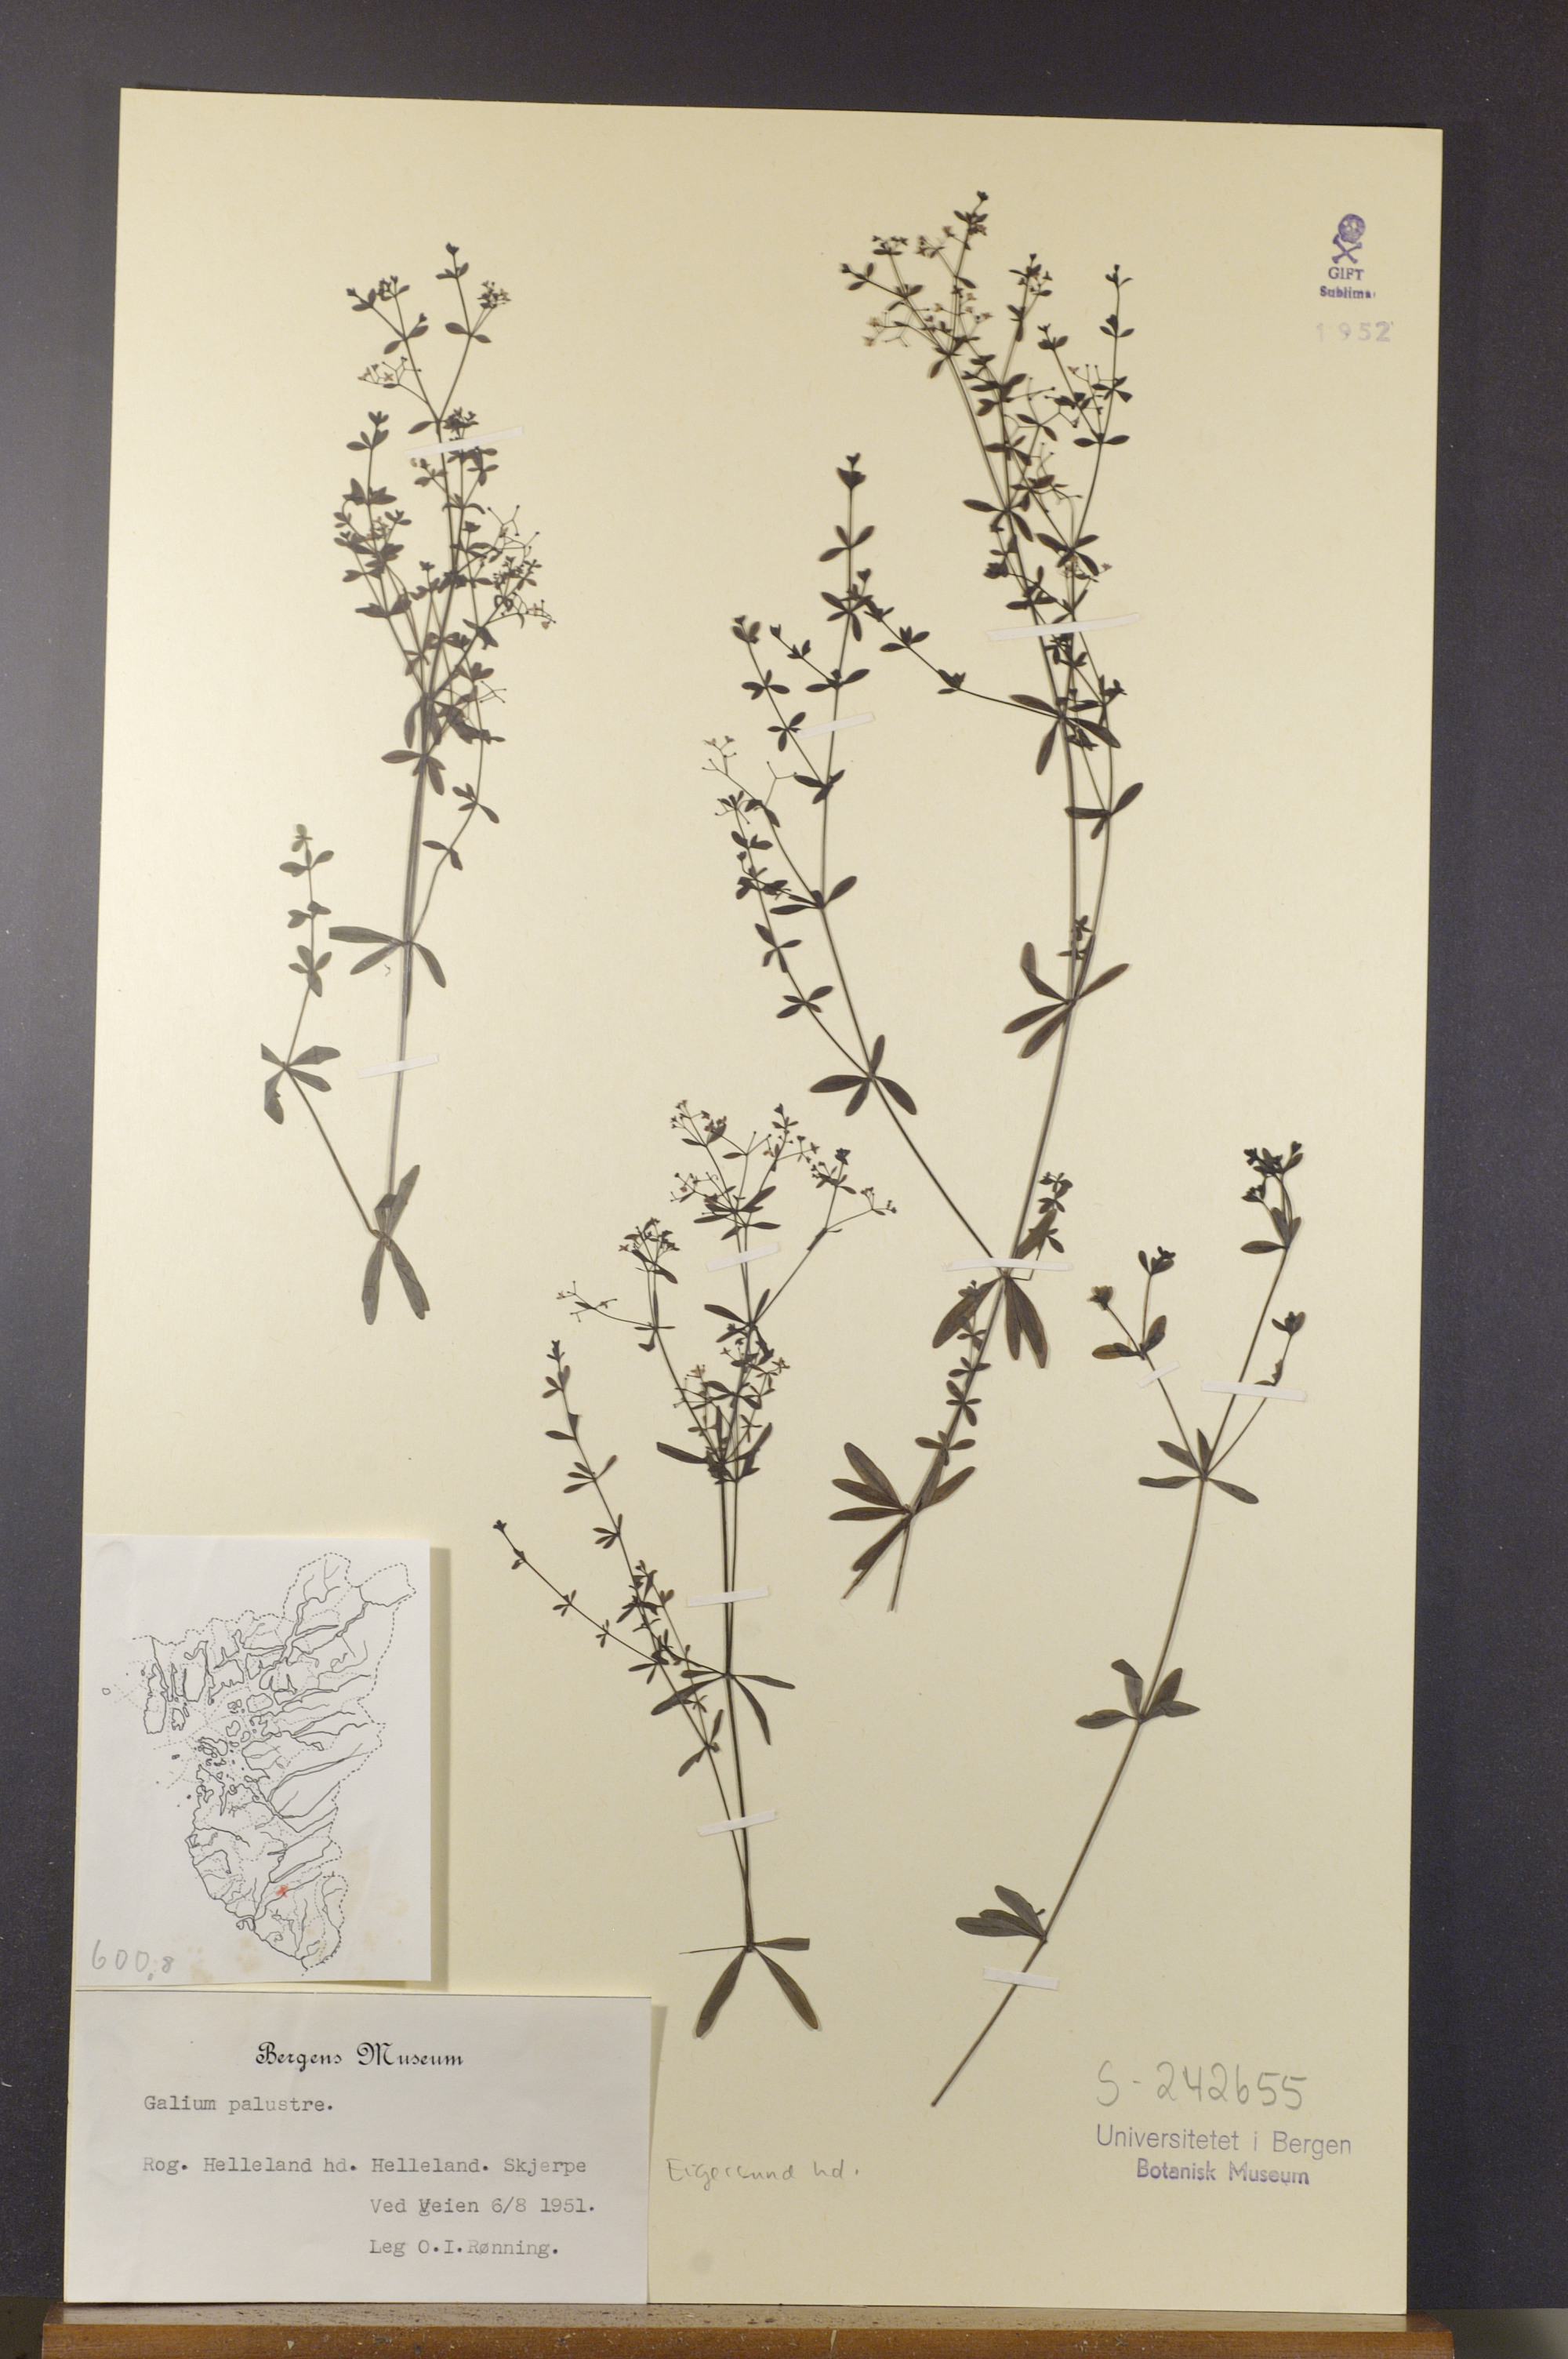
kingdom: Plantae
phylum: Tracheophyta
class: Magnoliopsida
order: Gentianales
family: Rubiaceae
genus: Galium
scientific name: Galium palustre
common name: Common marsh-bedstraw
